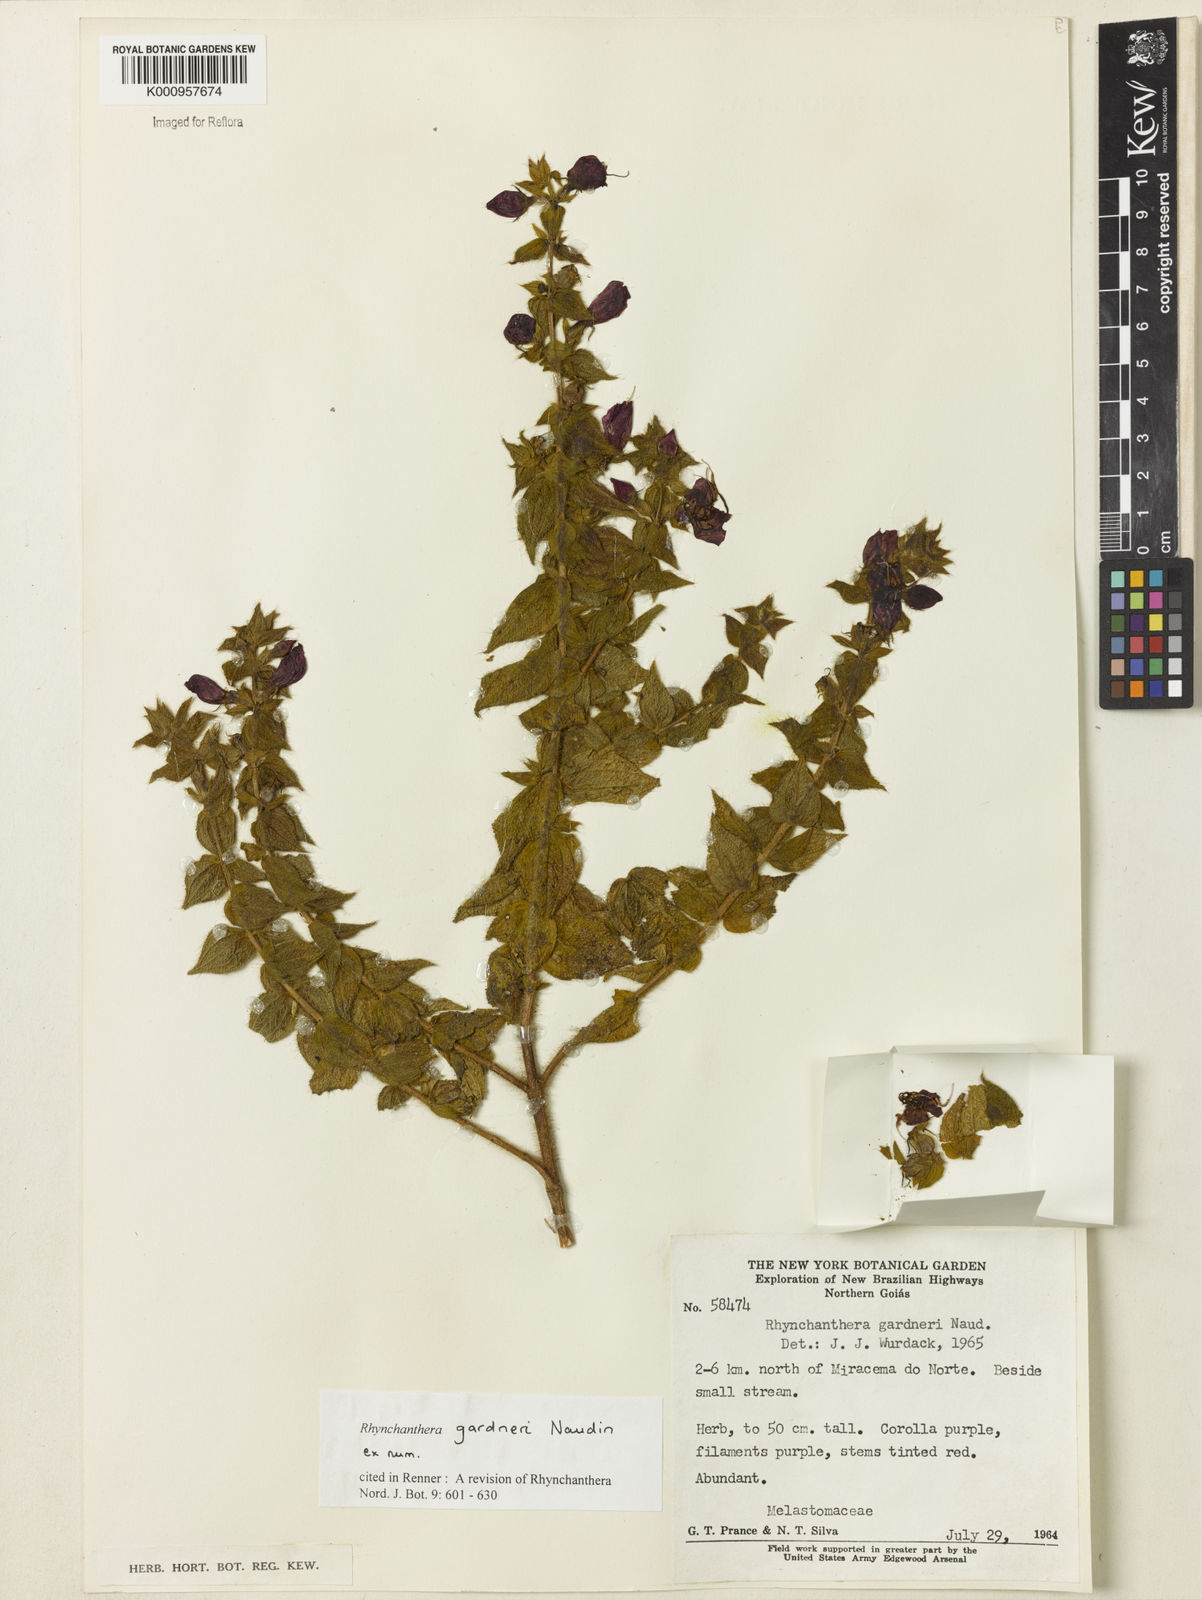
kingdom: Plantae
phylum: Tracheophyta
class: Magnoliopsida
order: Myrtales
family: Melastomataceae
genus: Rhynchanthera
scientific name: Rhynchanthera gardneri
